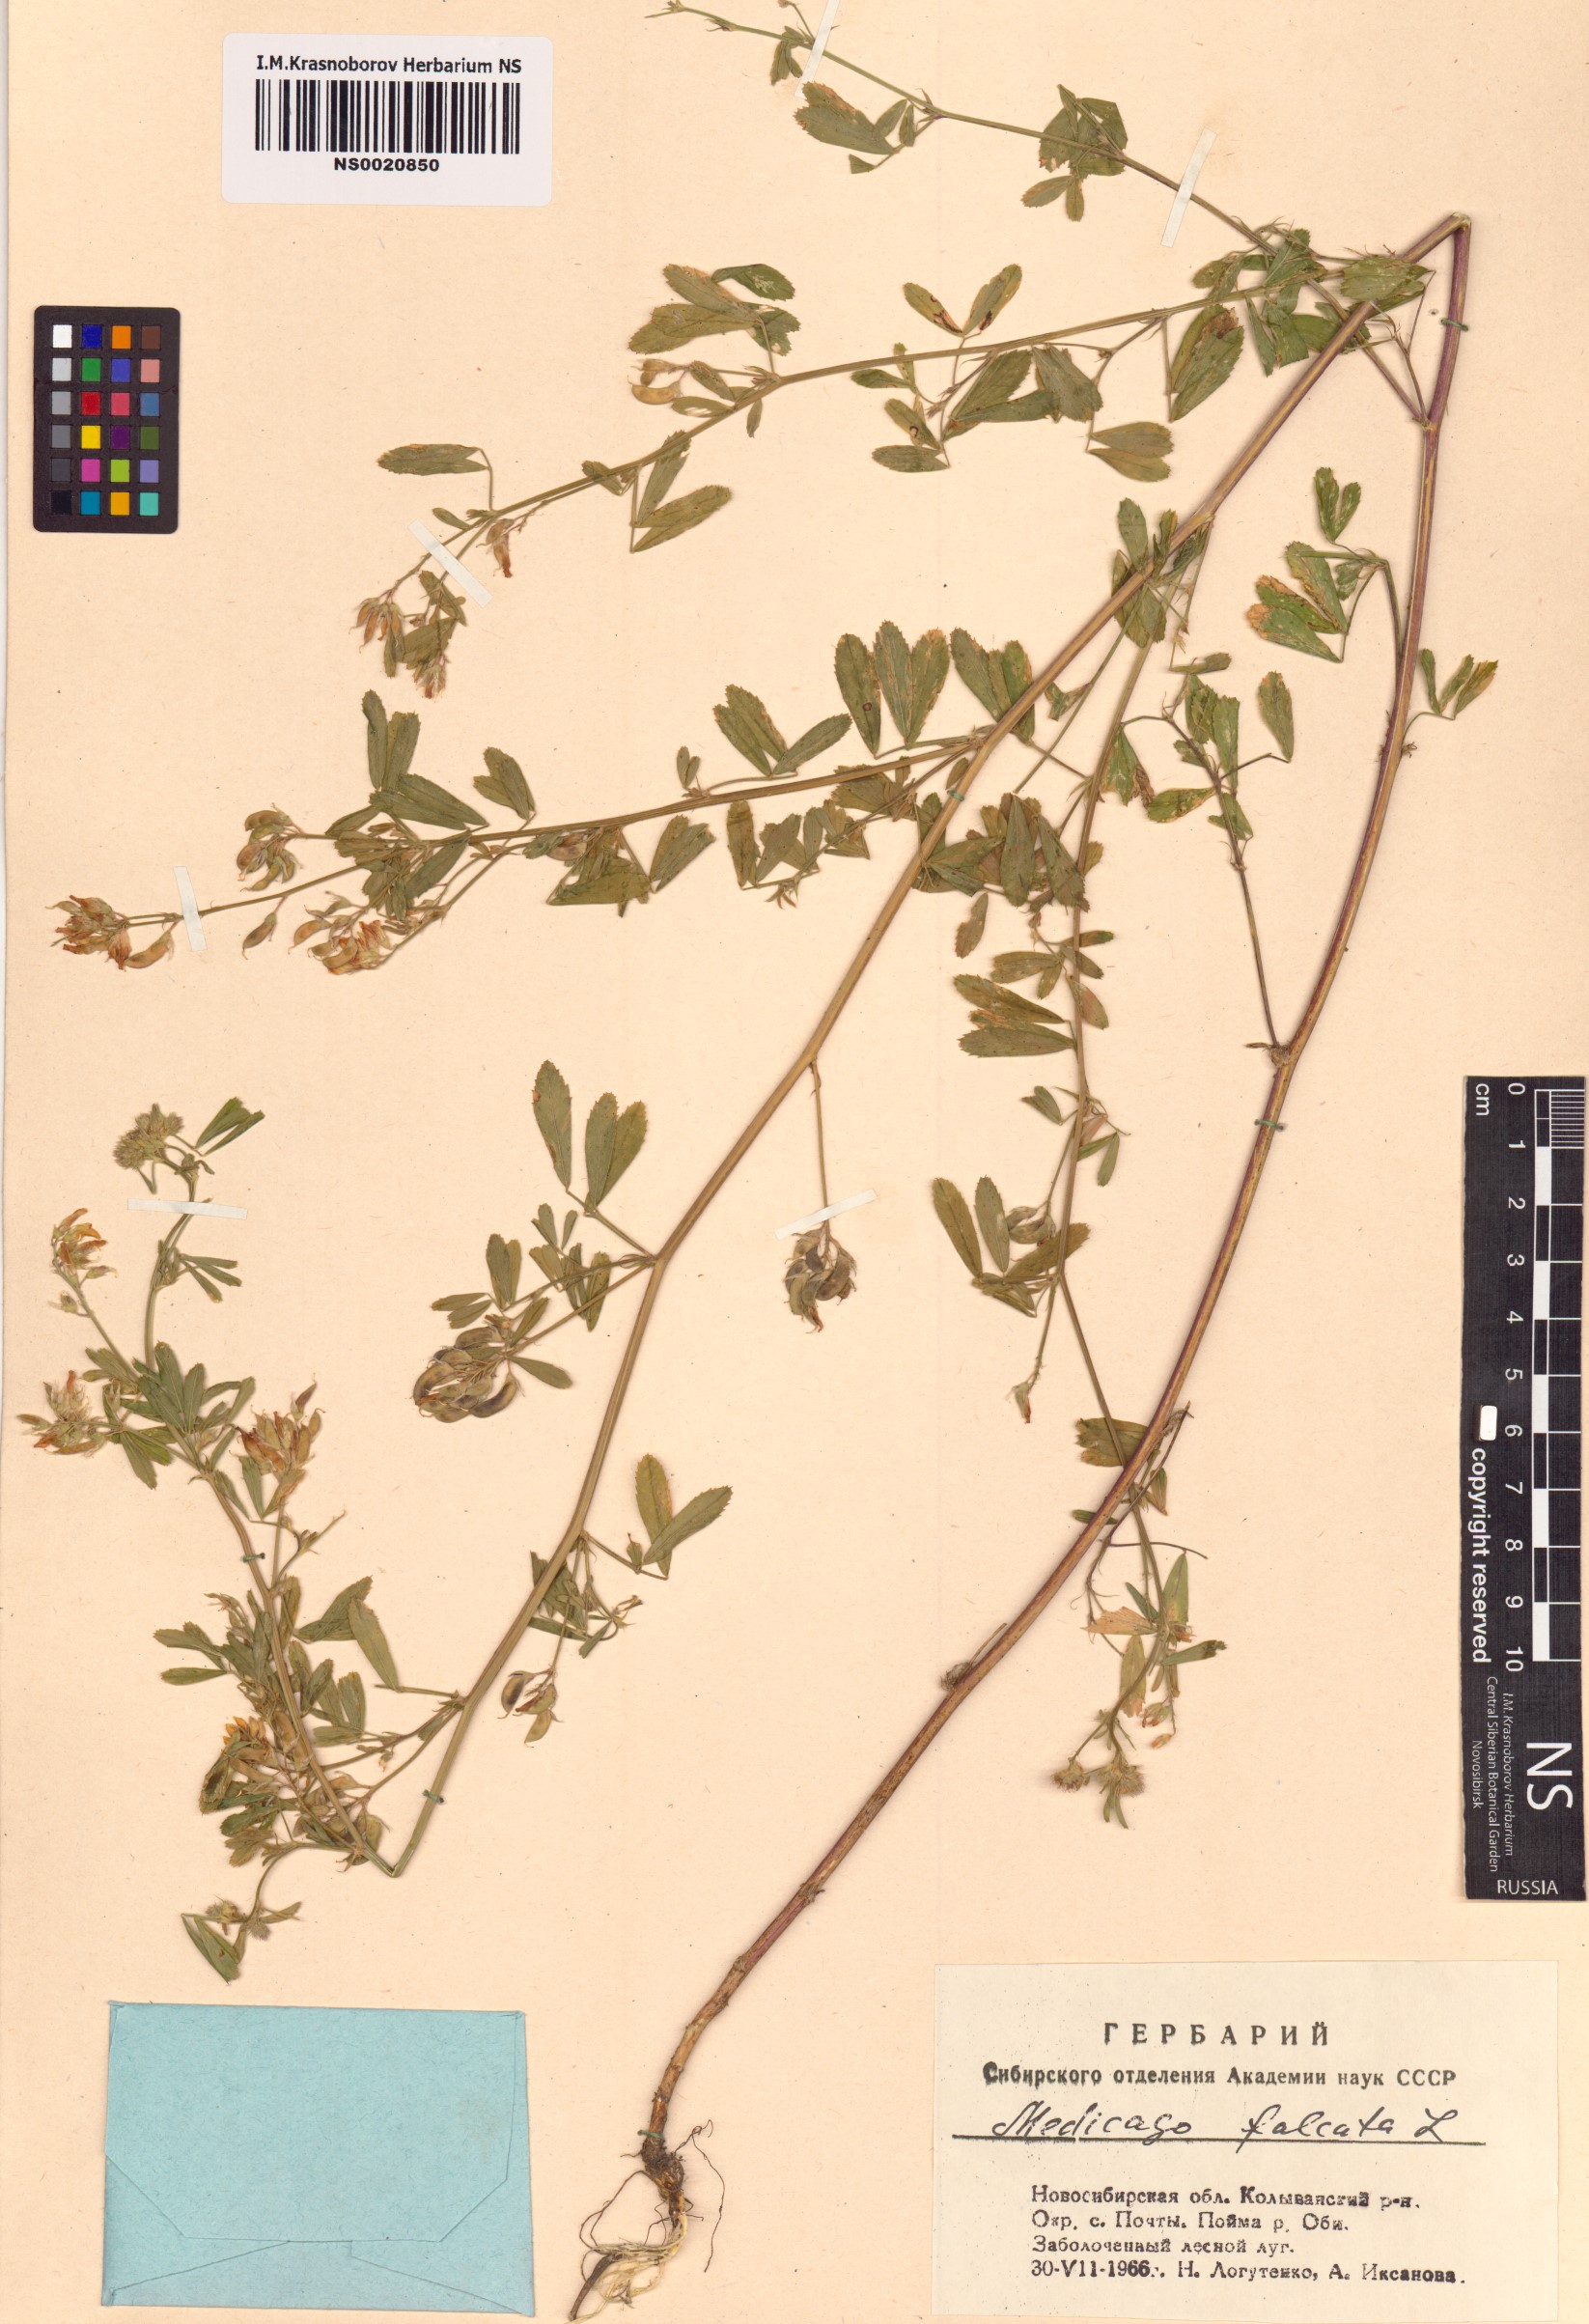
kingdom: Plantae
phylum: Tracheophyta
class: Magnoliopsida
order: Fabales
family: Fabaceae
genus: Medicago
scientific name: Medicago falcata
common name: Sickle medick
